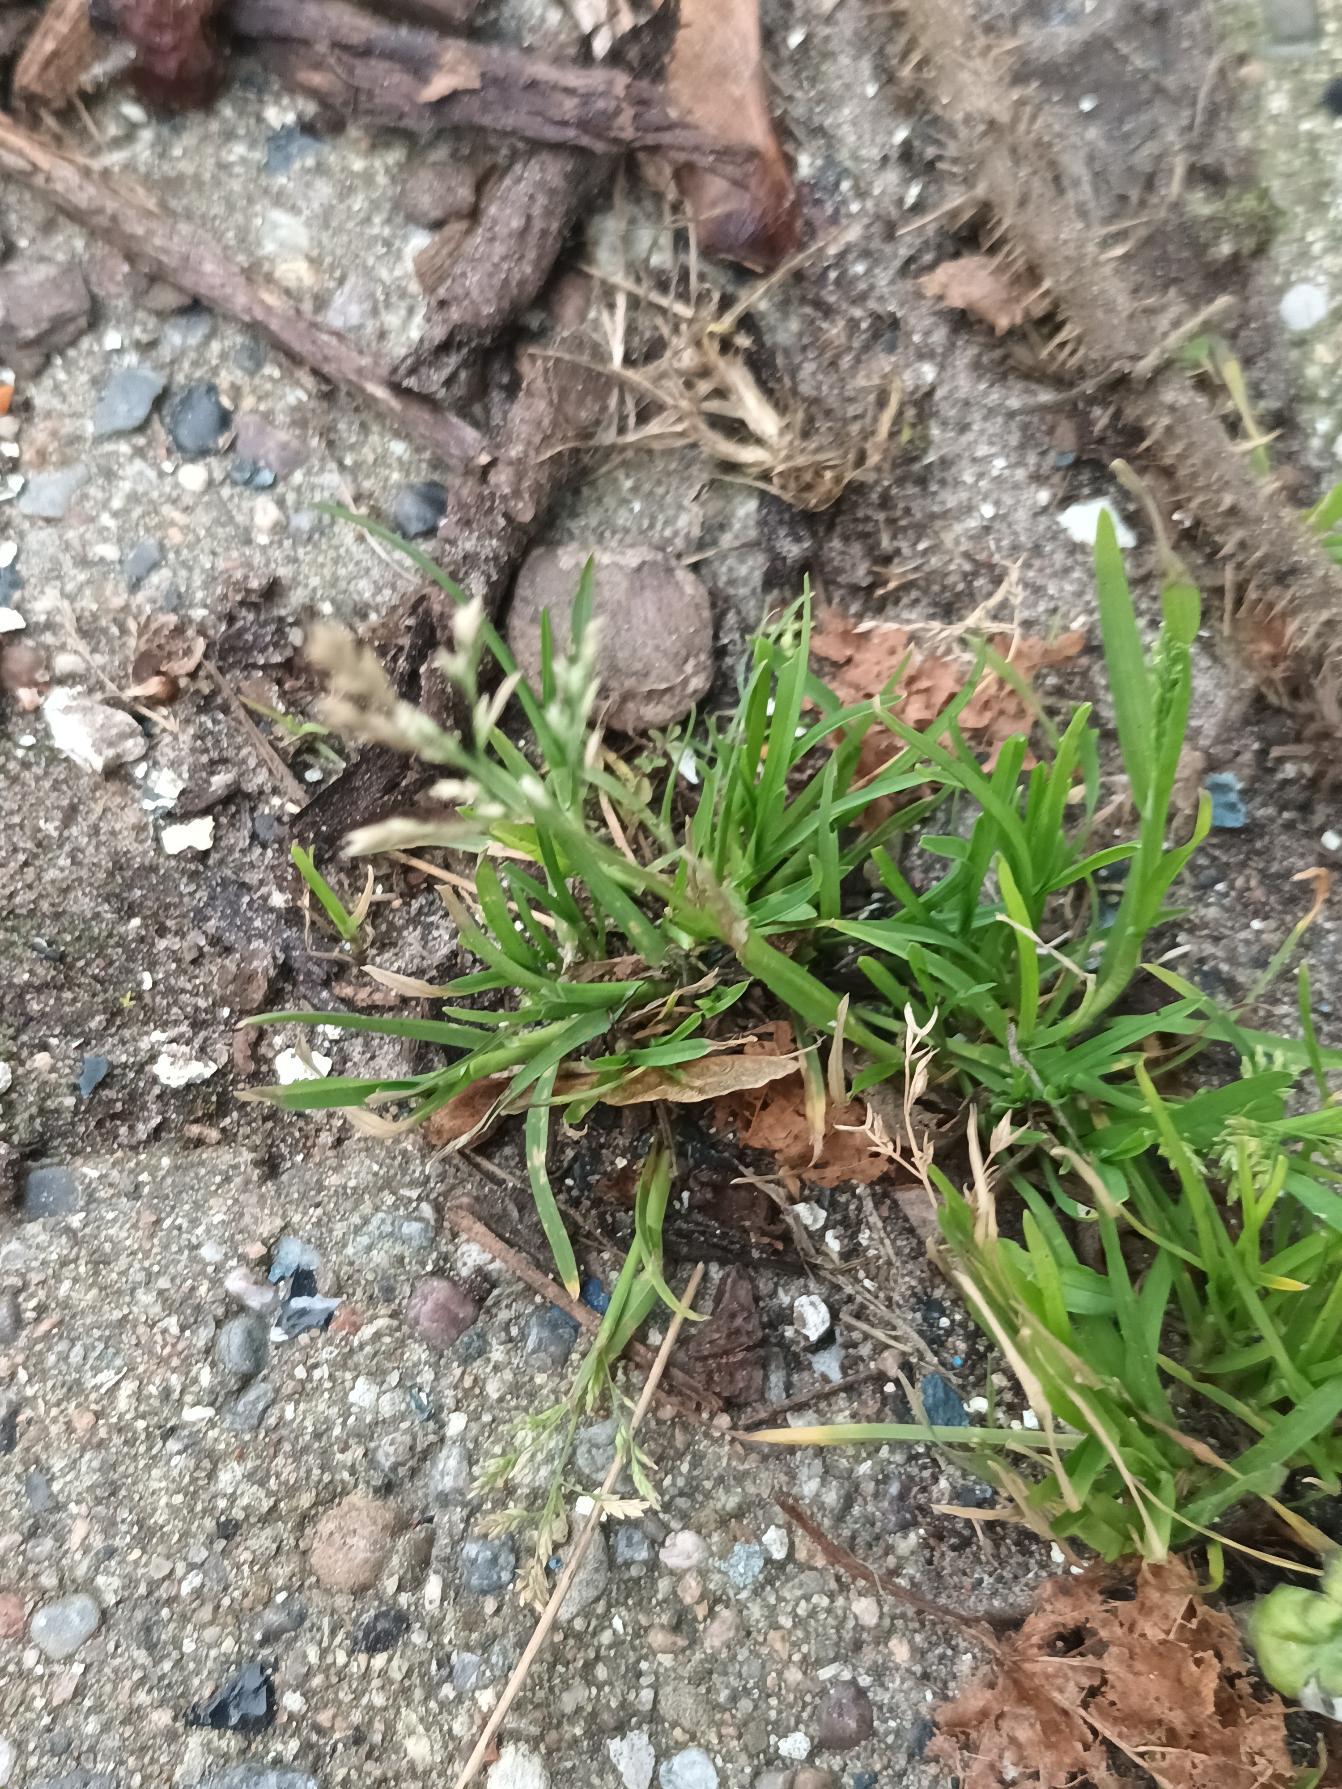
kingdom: Plantae
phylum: Tracheophyta
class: Liliopsida
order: Poales
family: Poaceae
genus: Poa
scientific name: Poa annua
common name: Enårig rapgræs
